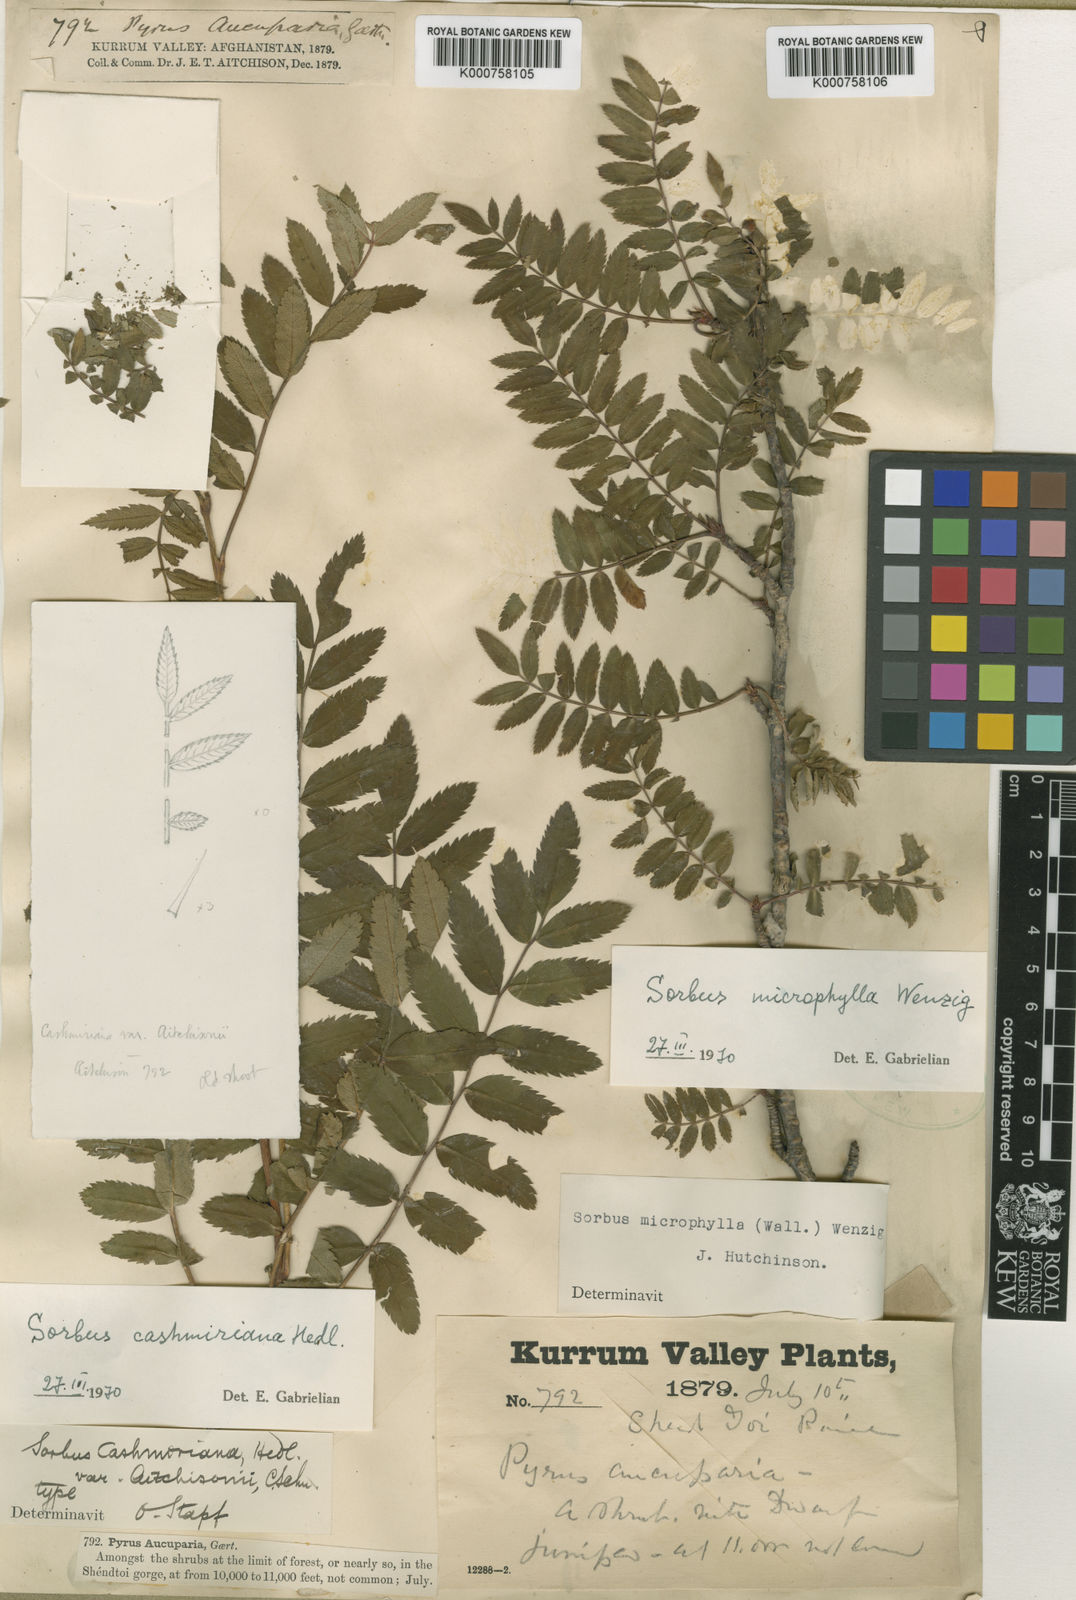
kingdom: Plantae
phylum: Tracheophyta
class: Magnoliopsida
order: Rosales
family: Rosaceae
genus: Sorbus
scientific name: Sorbus cashmiriana
